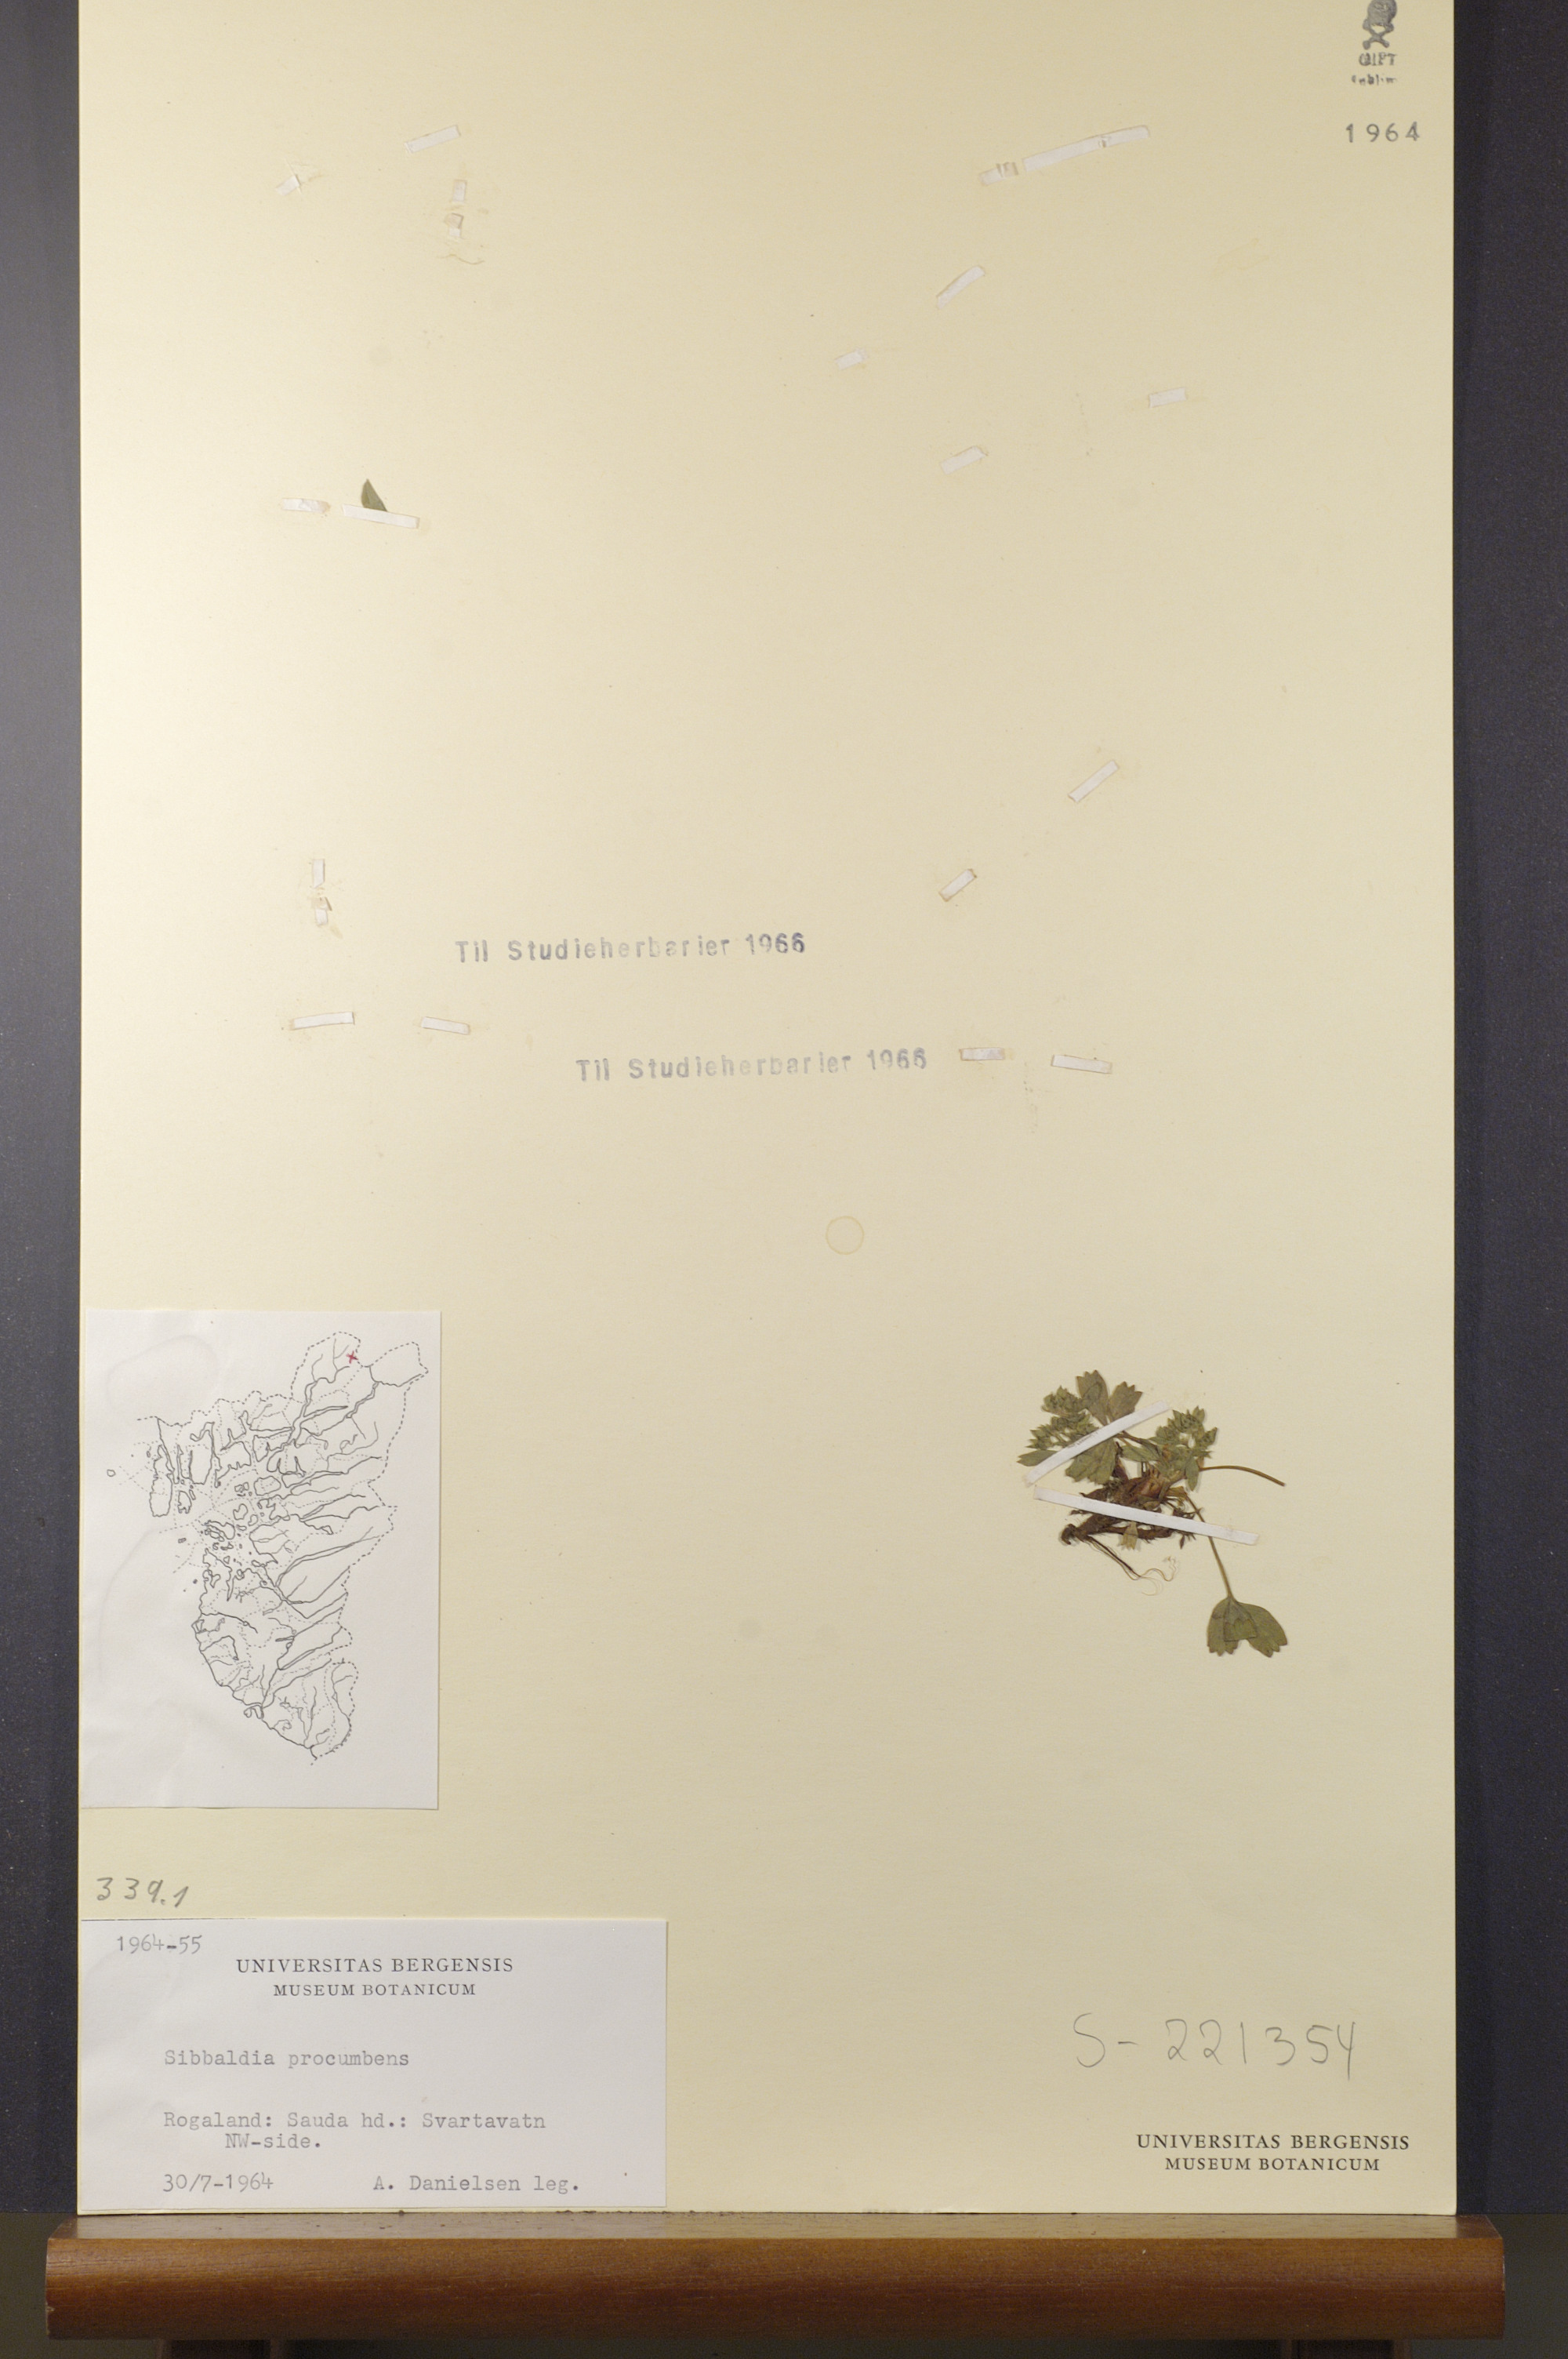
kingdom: Plantae
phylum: Tracheophyta
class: Magnoliopsida
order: Rosales
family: Rosaceae
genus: Sibbaldia
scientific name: Sibbaldia procumbens
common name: Creeping sibbaldia
